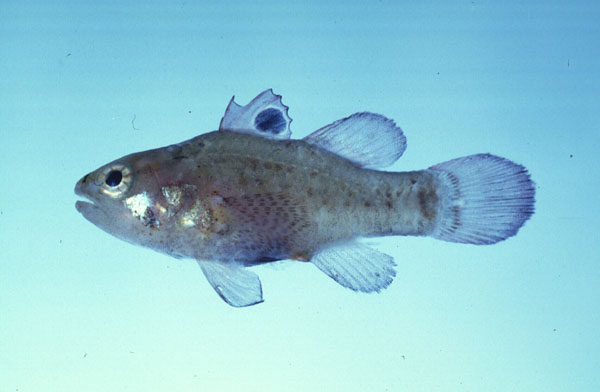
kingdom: Animalia
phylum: Chordata
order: Perciformes
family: Apogonidae
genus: Apogonichthys
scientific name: Apogonichthys ocellatus
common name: Ocellated cardinalfish
